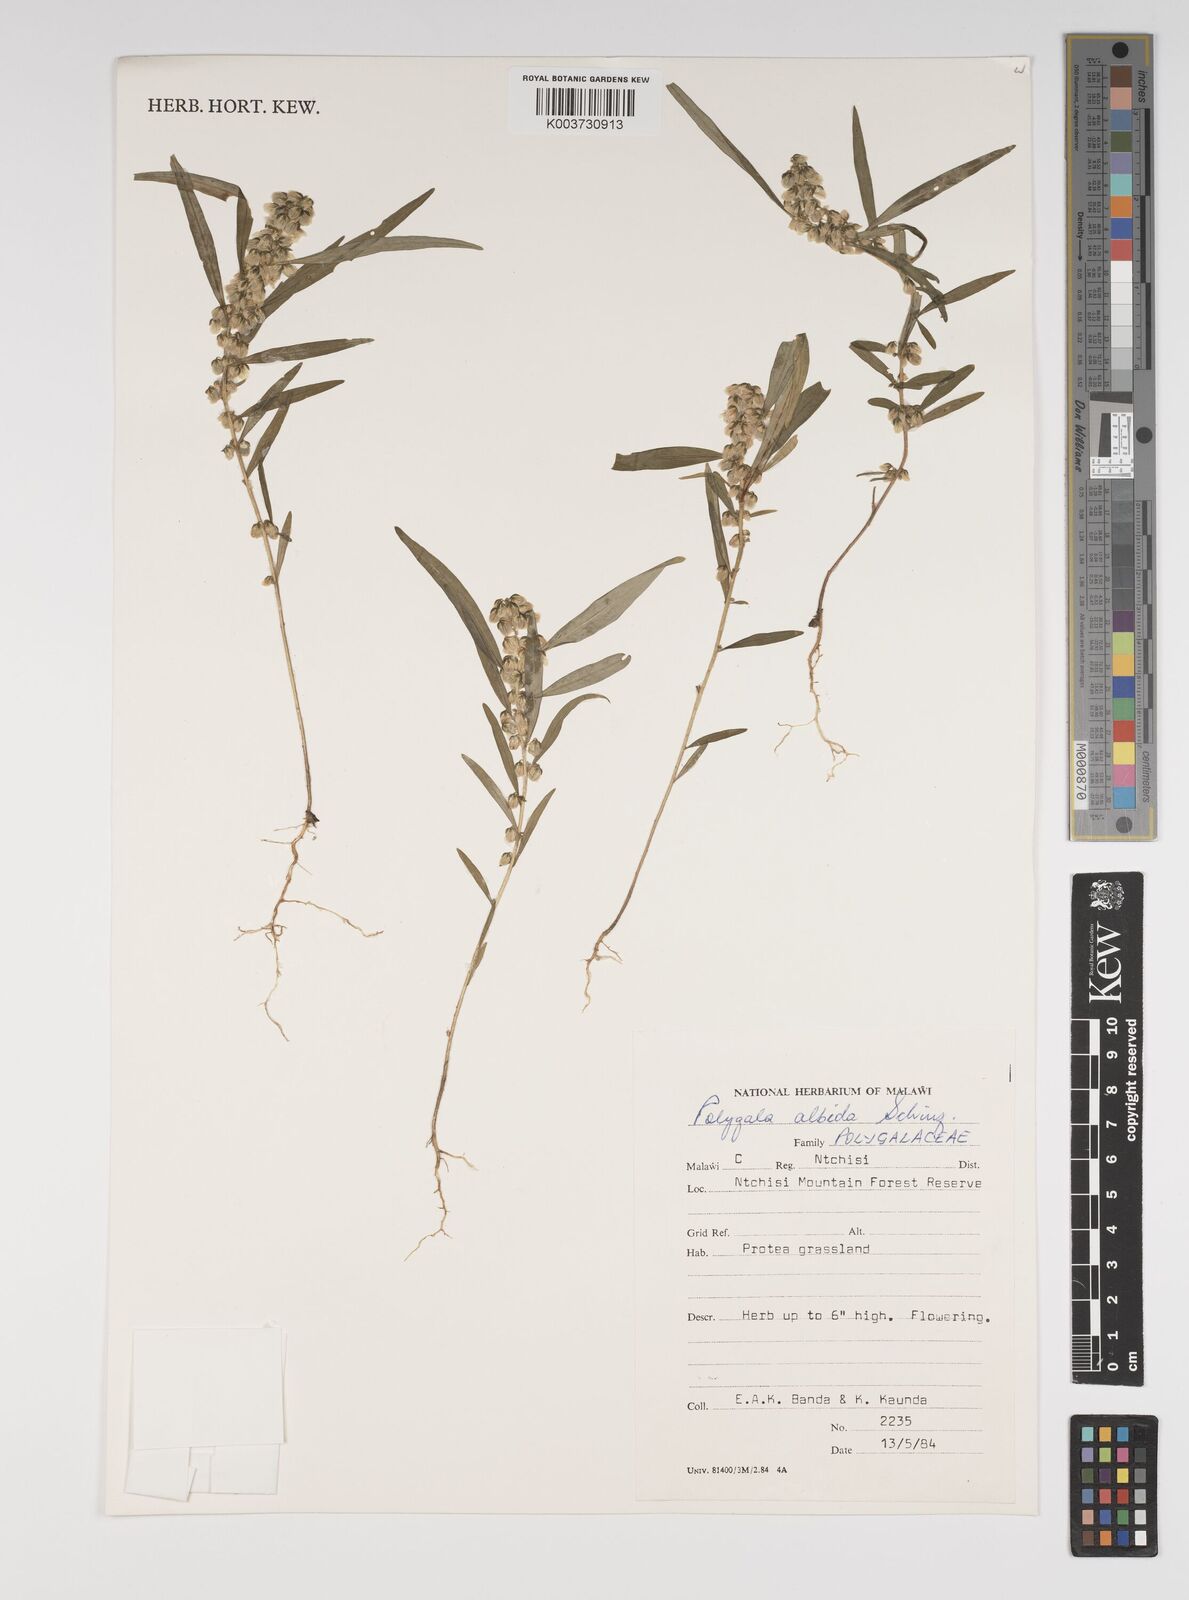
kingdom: Plantae
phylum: Tracheophyta
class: Magnoliopsida
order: Fabales
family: Polygalaceae
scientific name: Polygalaceae
